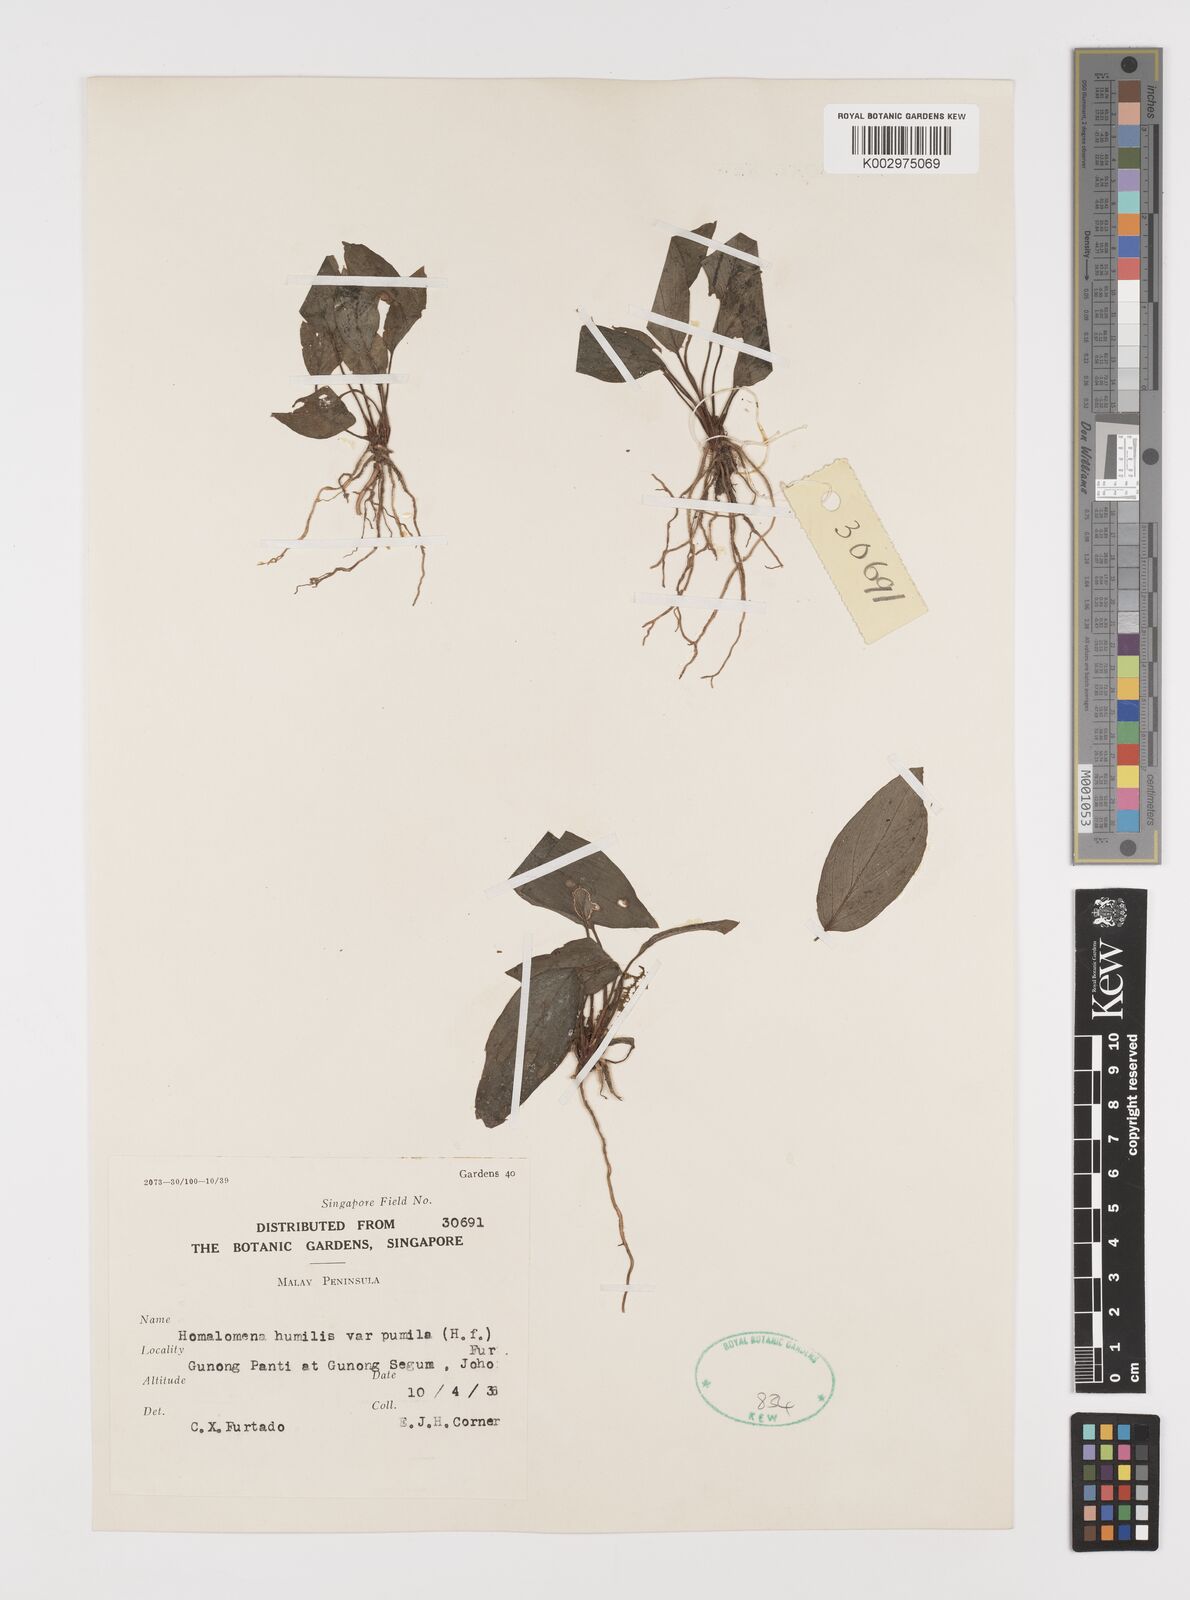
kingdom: Plantae
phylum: Tracheophyta
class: Liliopsida
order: Alismatales
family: Araceae
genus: Homalomena
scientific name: Homalomena humilis
